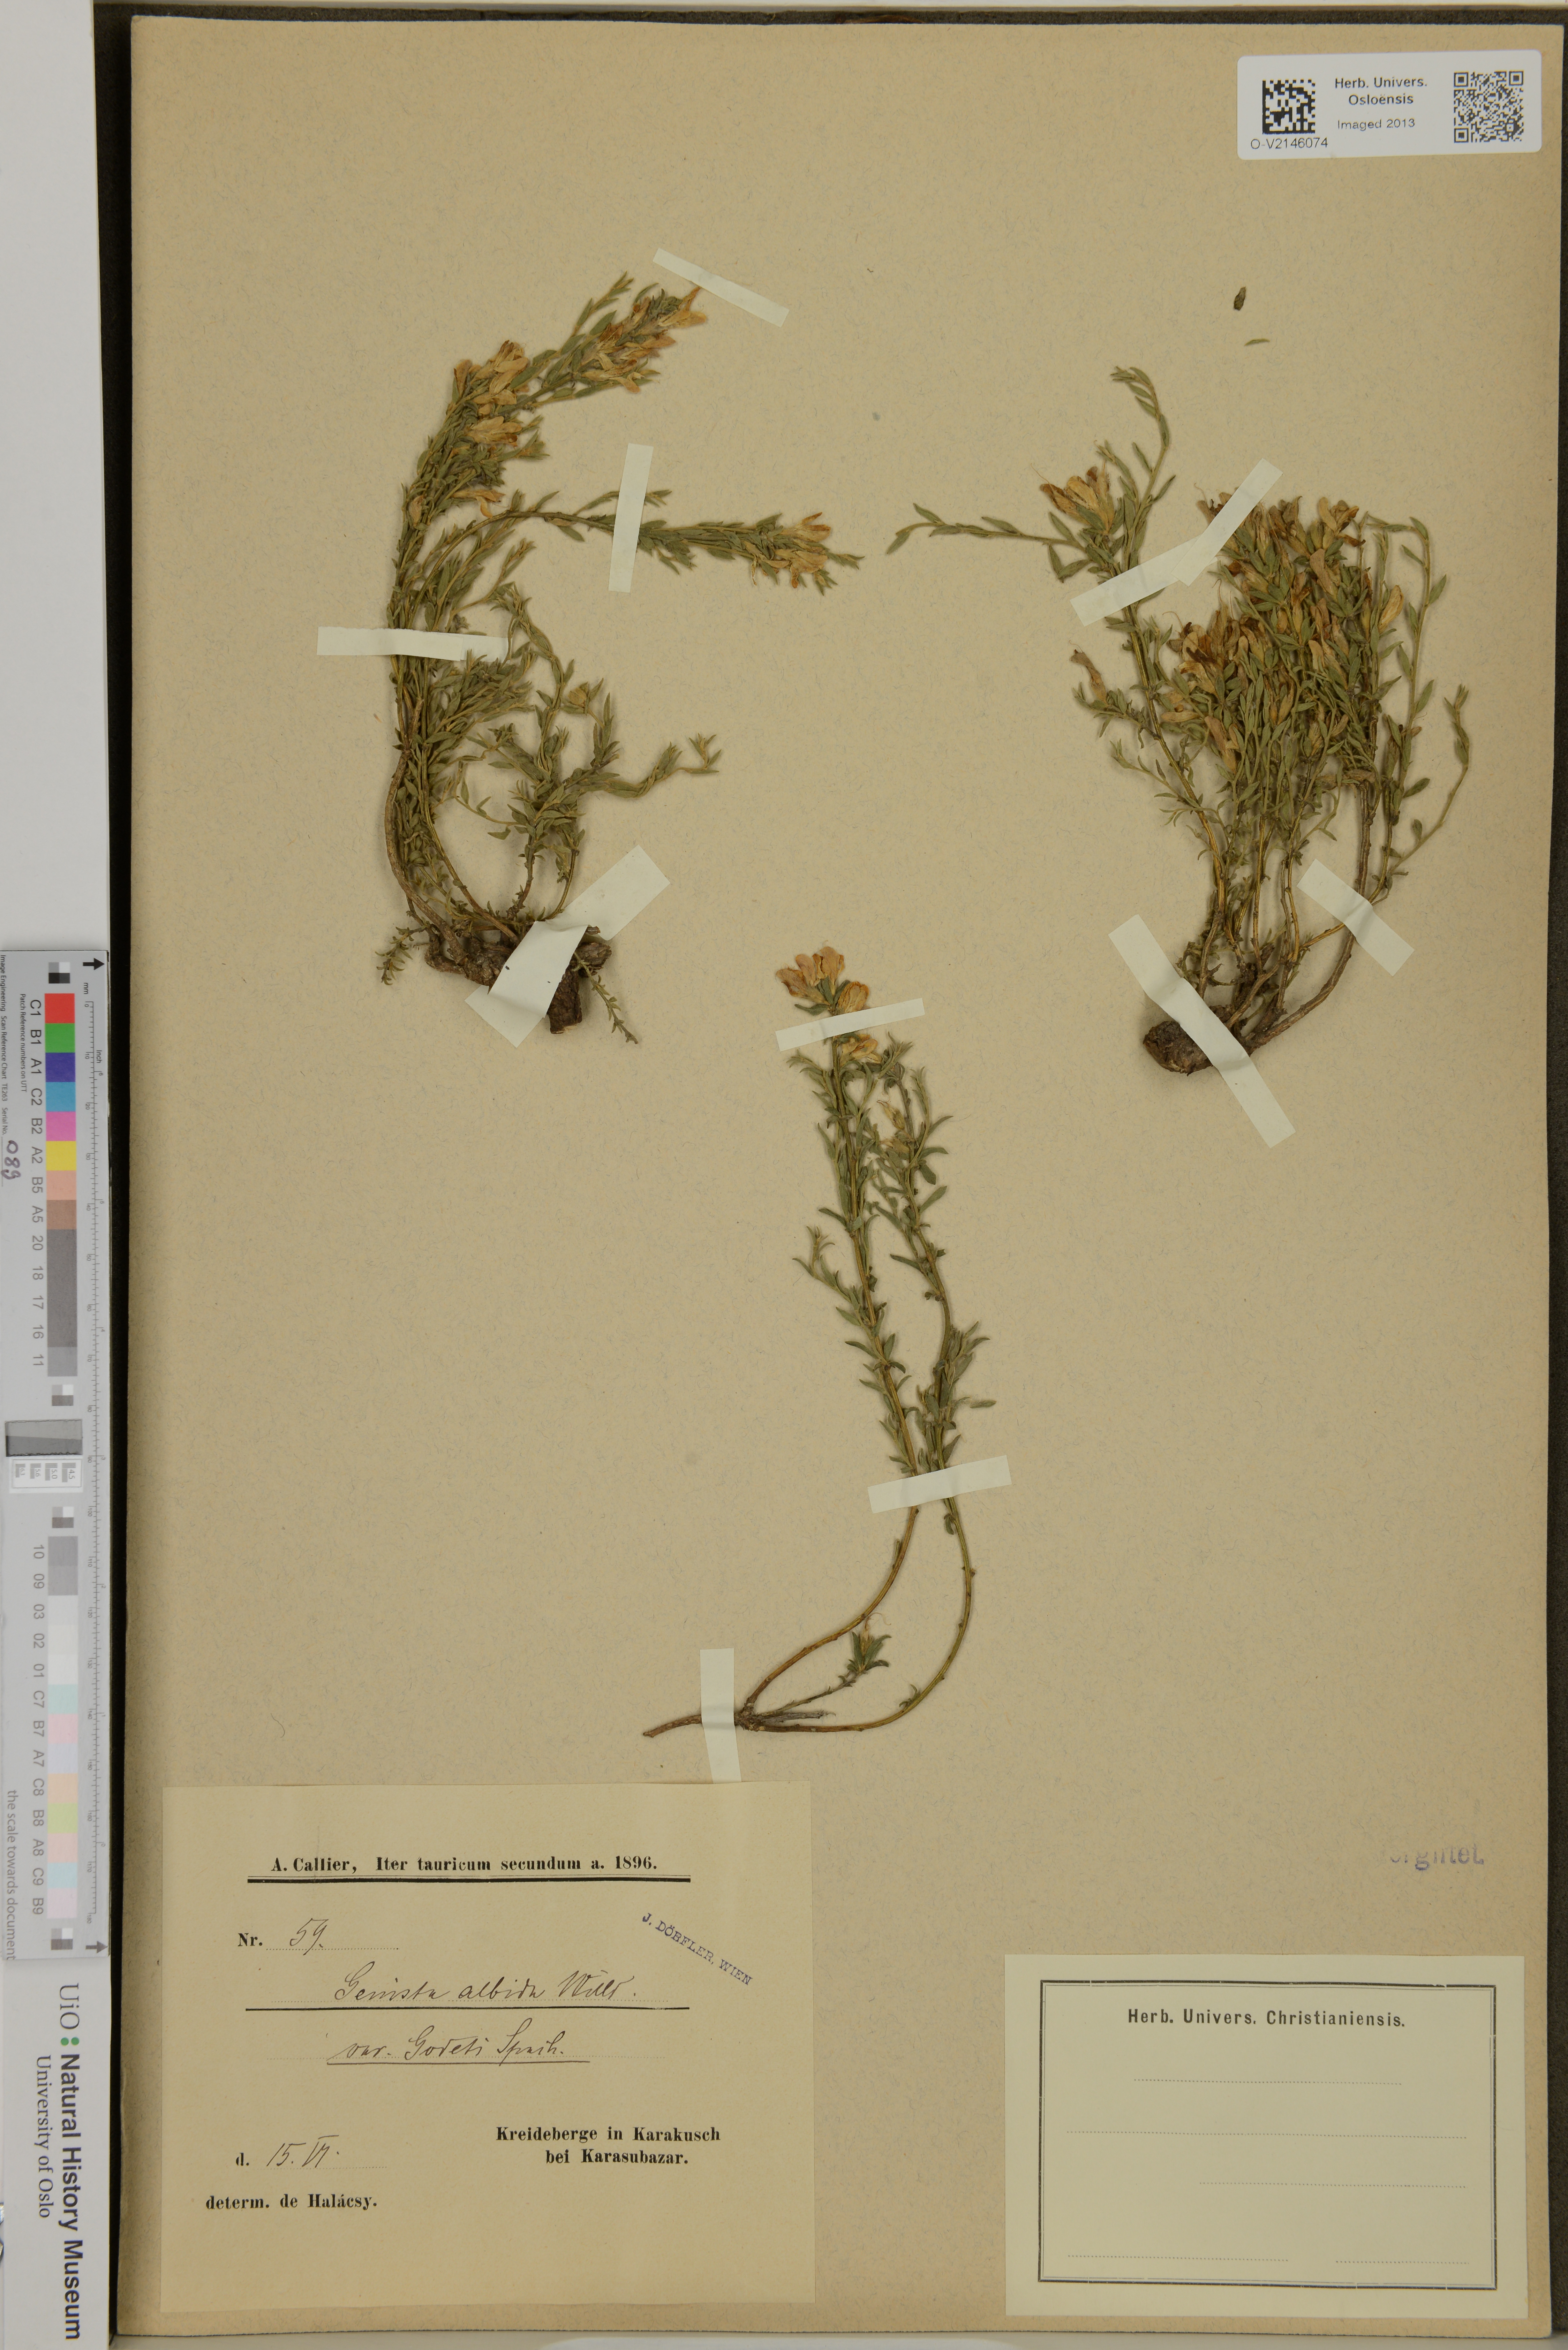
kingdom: Plantae
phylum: Tracheophyta
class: Magnoliopsida
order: Fabales
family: Fabaceae
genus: Genista
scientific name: Genista albida
